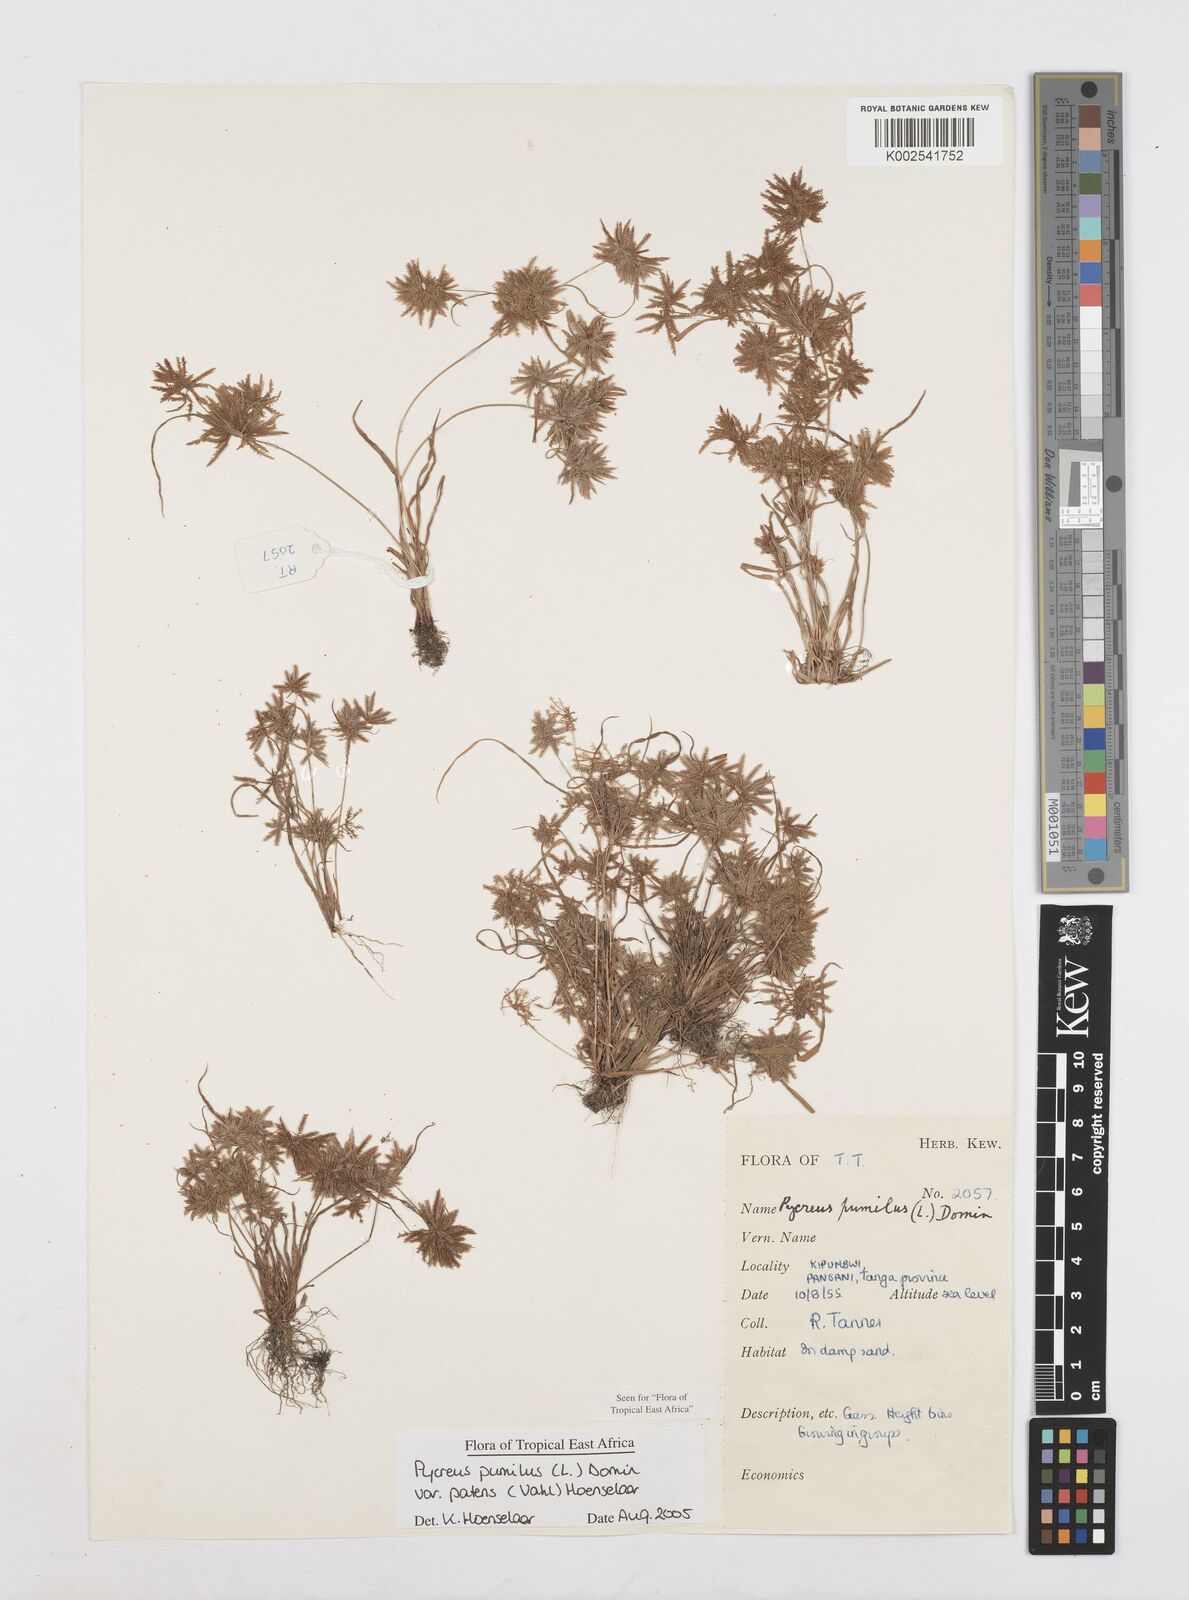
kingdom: Plantae
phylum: Tracheophyta
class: Liliopsida
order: Poales
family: Cyperaceae
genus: Cyperus
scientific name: Cyperus pumilus
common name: Low flatsedge
